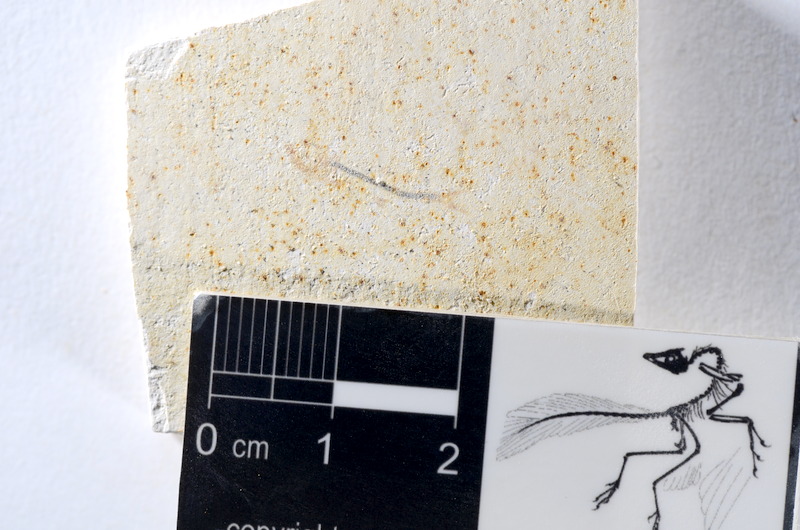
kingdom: Animalia
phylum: Chordata
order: Salmoniformes
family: Orthogonikleithridae
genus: Orthogonikleithrus
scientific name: Orthogonikleithrus hoelli
